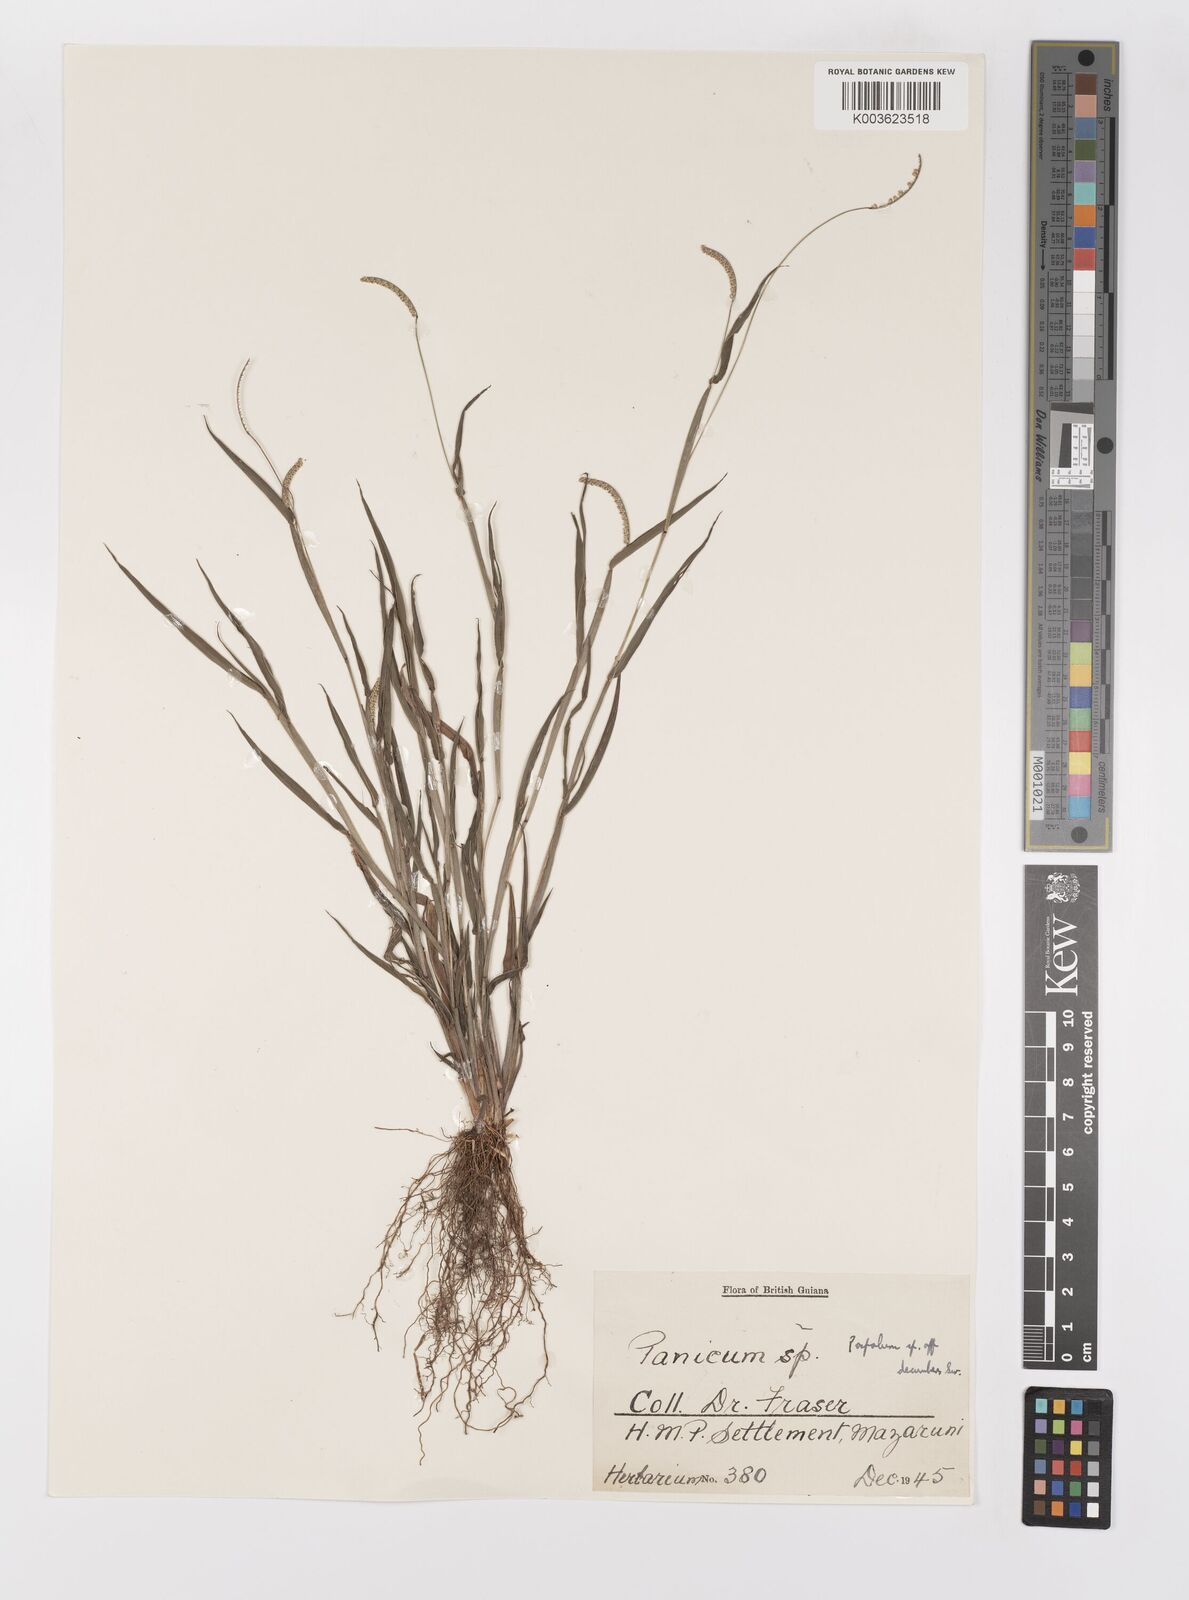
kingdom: Plantae
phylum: Tracheophyta
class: Liliopsida
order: Poales
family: Poaceae
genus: Paspalum
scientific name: Paspalum decumbens
